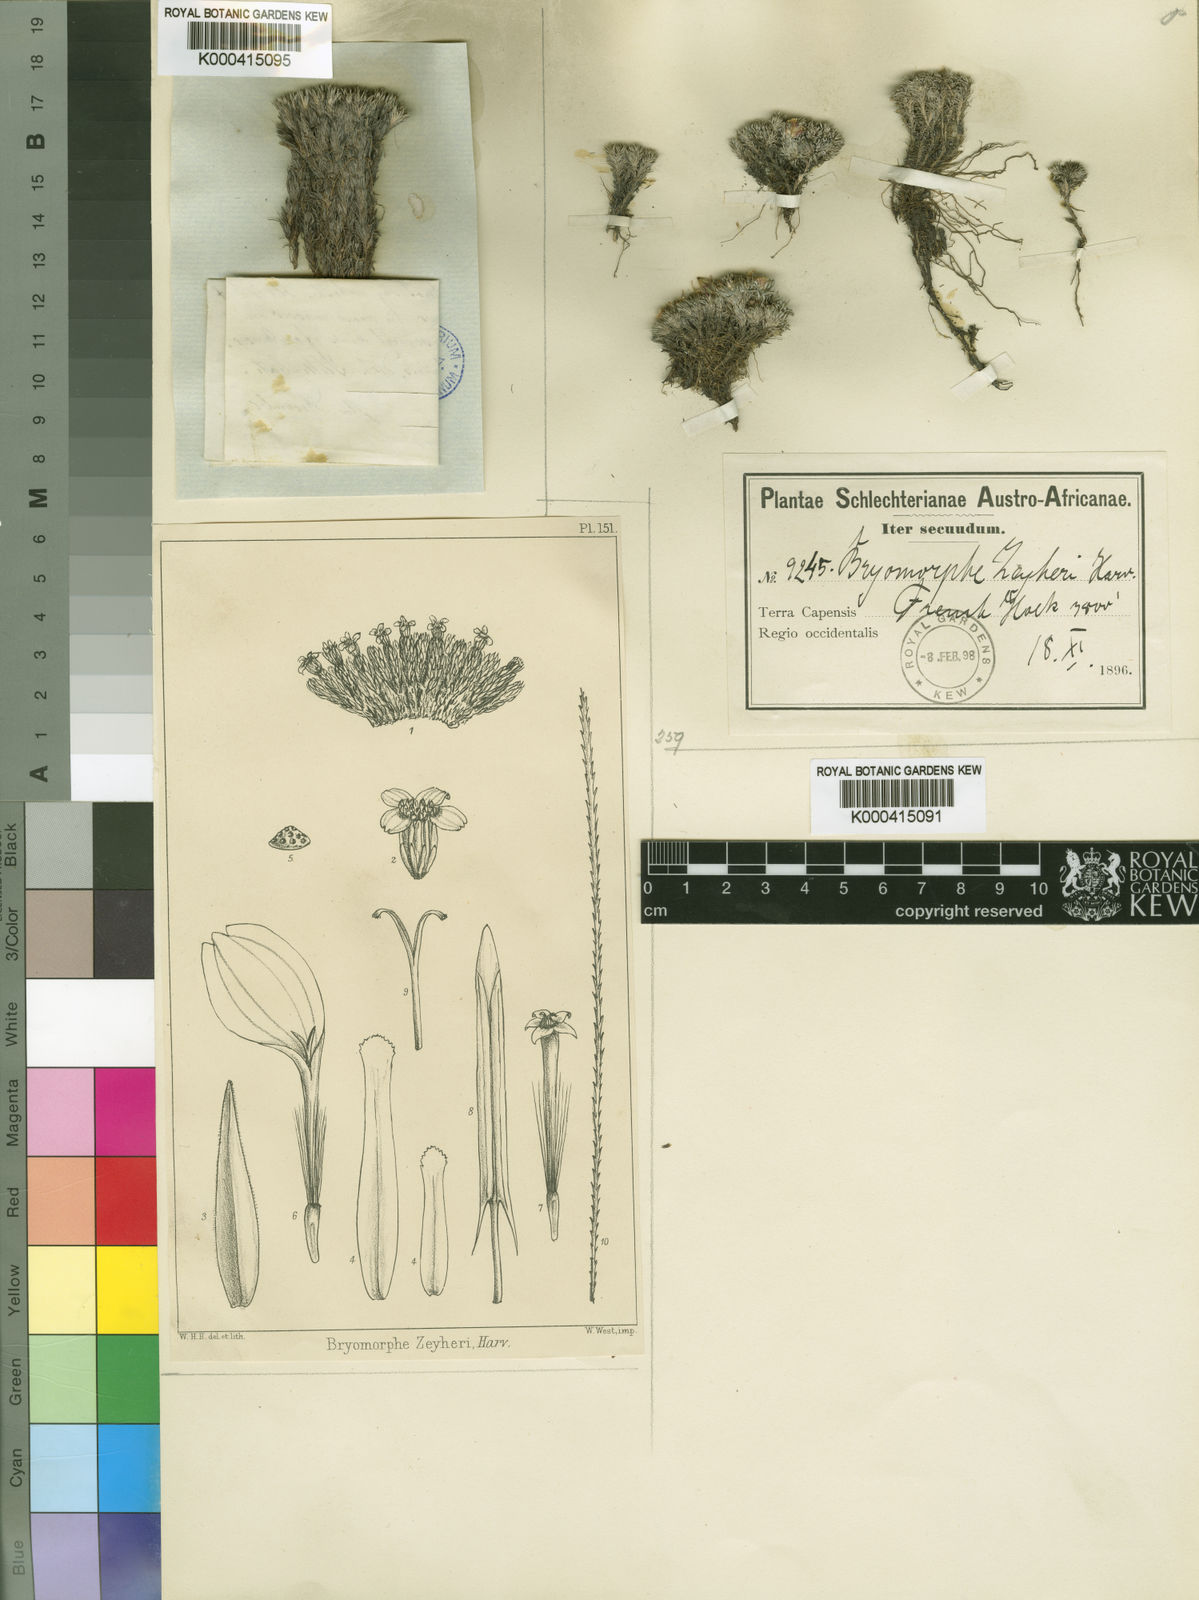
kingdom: Plantae
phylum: Tracheophyta
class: Magnoliopsida
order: Asterales
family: Asteraceae
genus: Dolichothrix
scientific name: Dolichothrix ericoides
